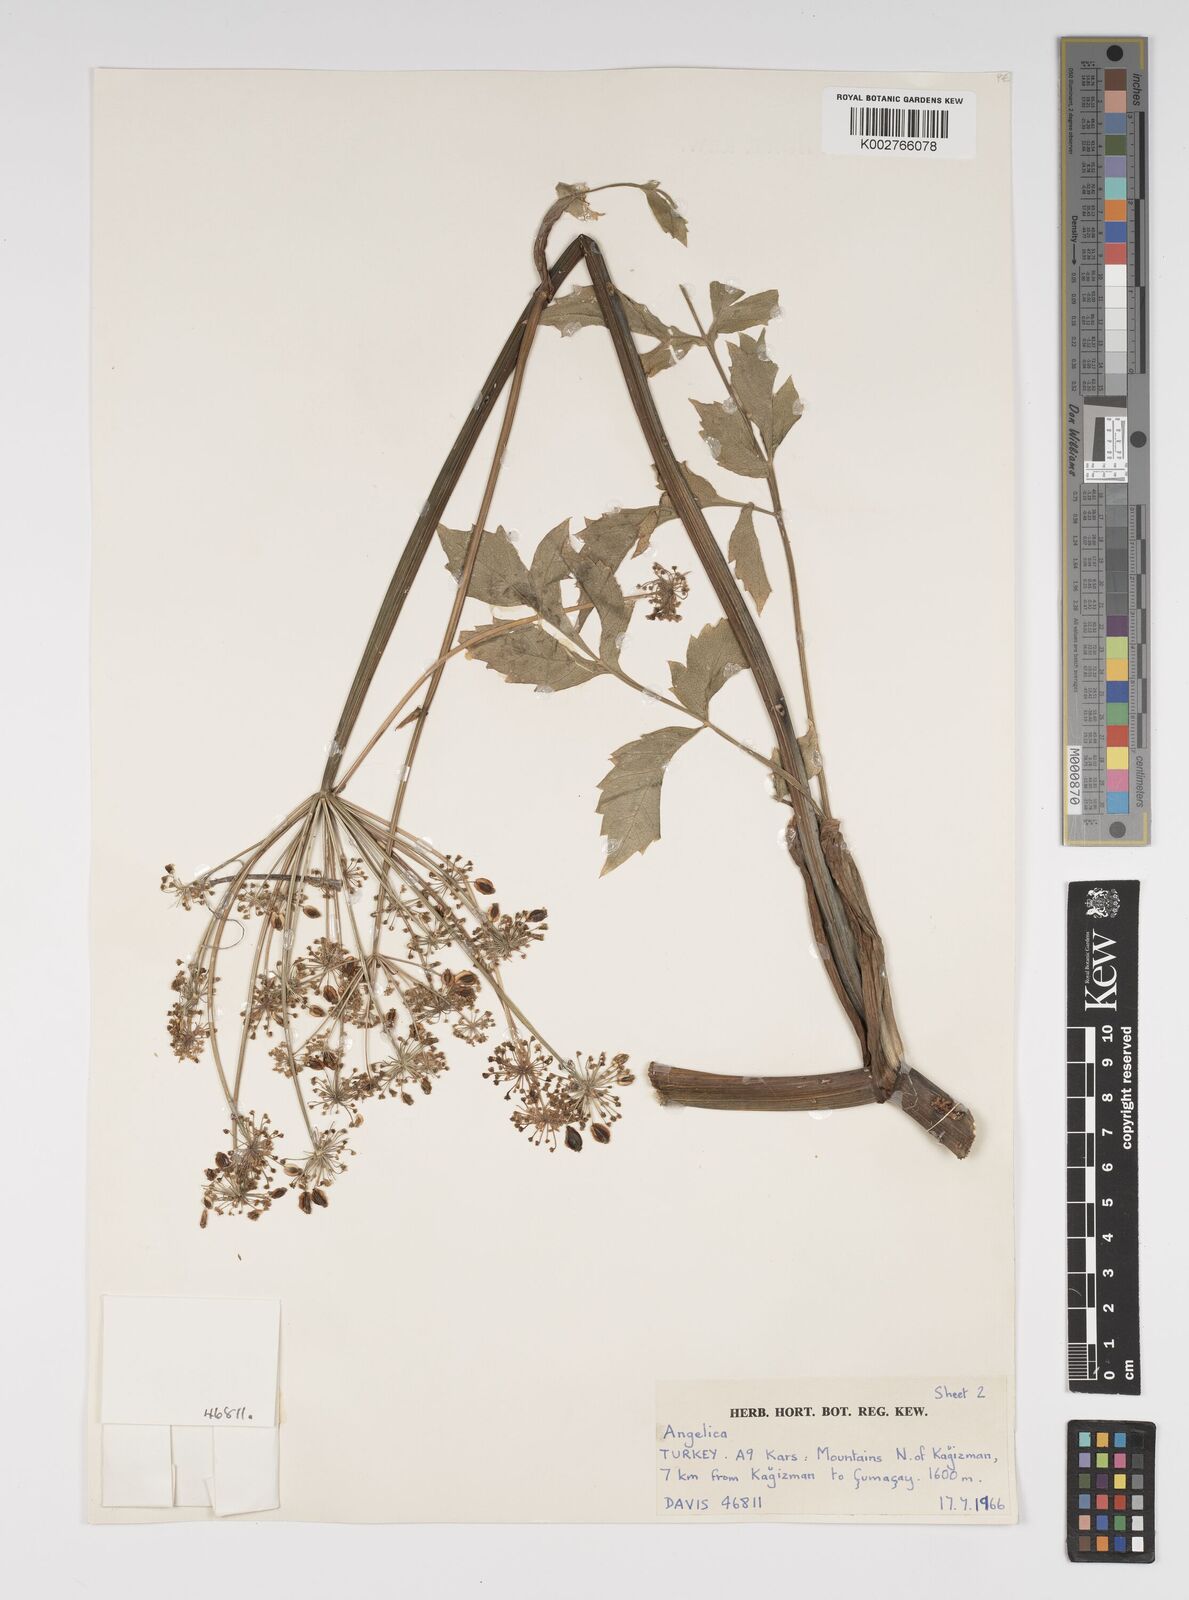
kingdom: Plantae
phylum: Tracheophyta
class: Magnoliopsida
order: Apiales
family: Apiaceae
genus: Xanthogalum
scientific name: Xanthogalum purpurascens
